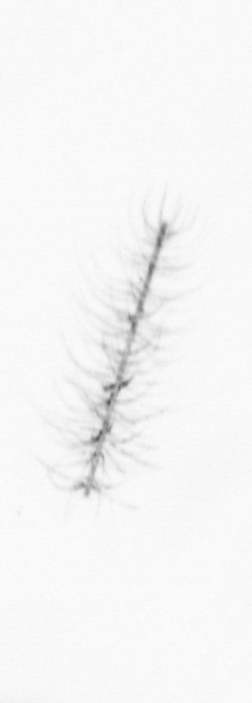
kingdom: Chromista
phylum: Ochrophyta
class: Bacillariophyceae
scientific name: Bacillariophyceae
